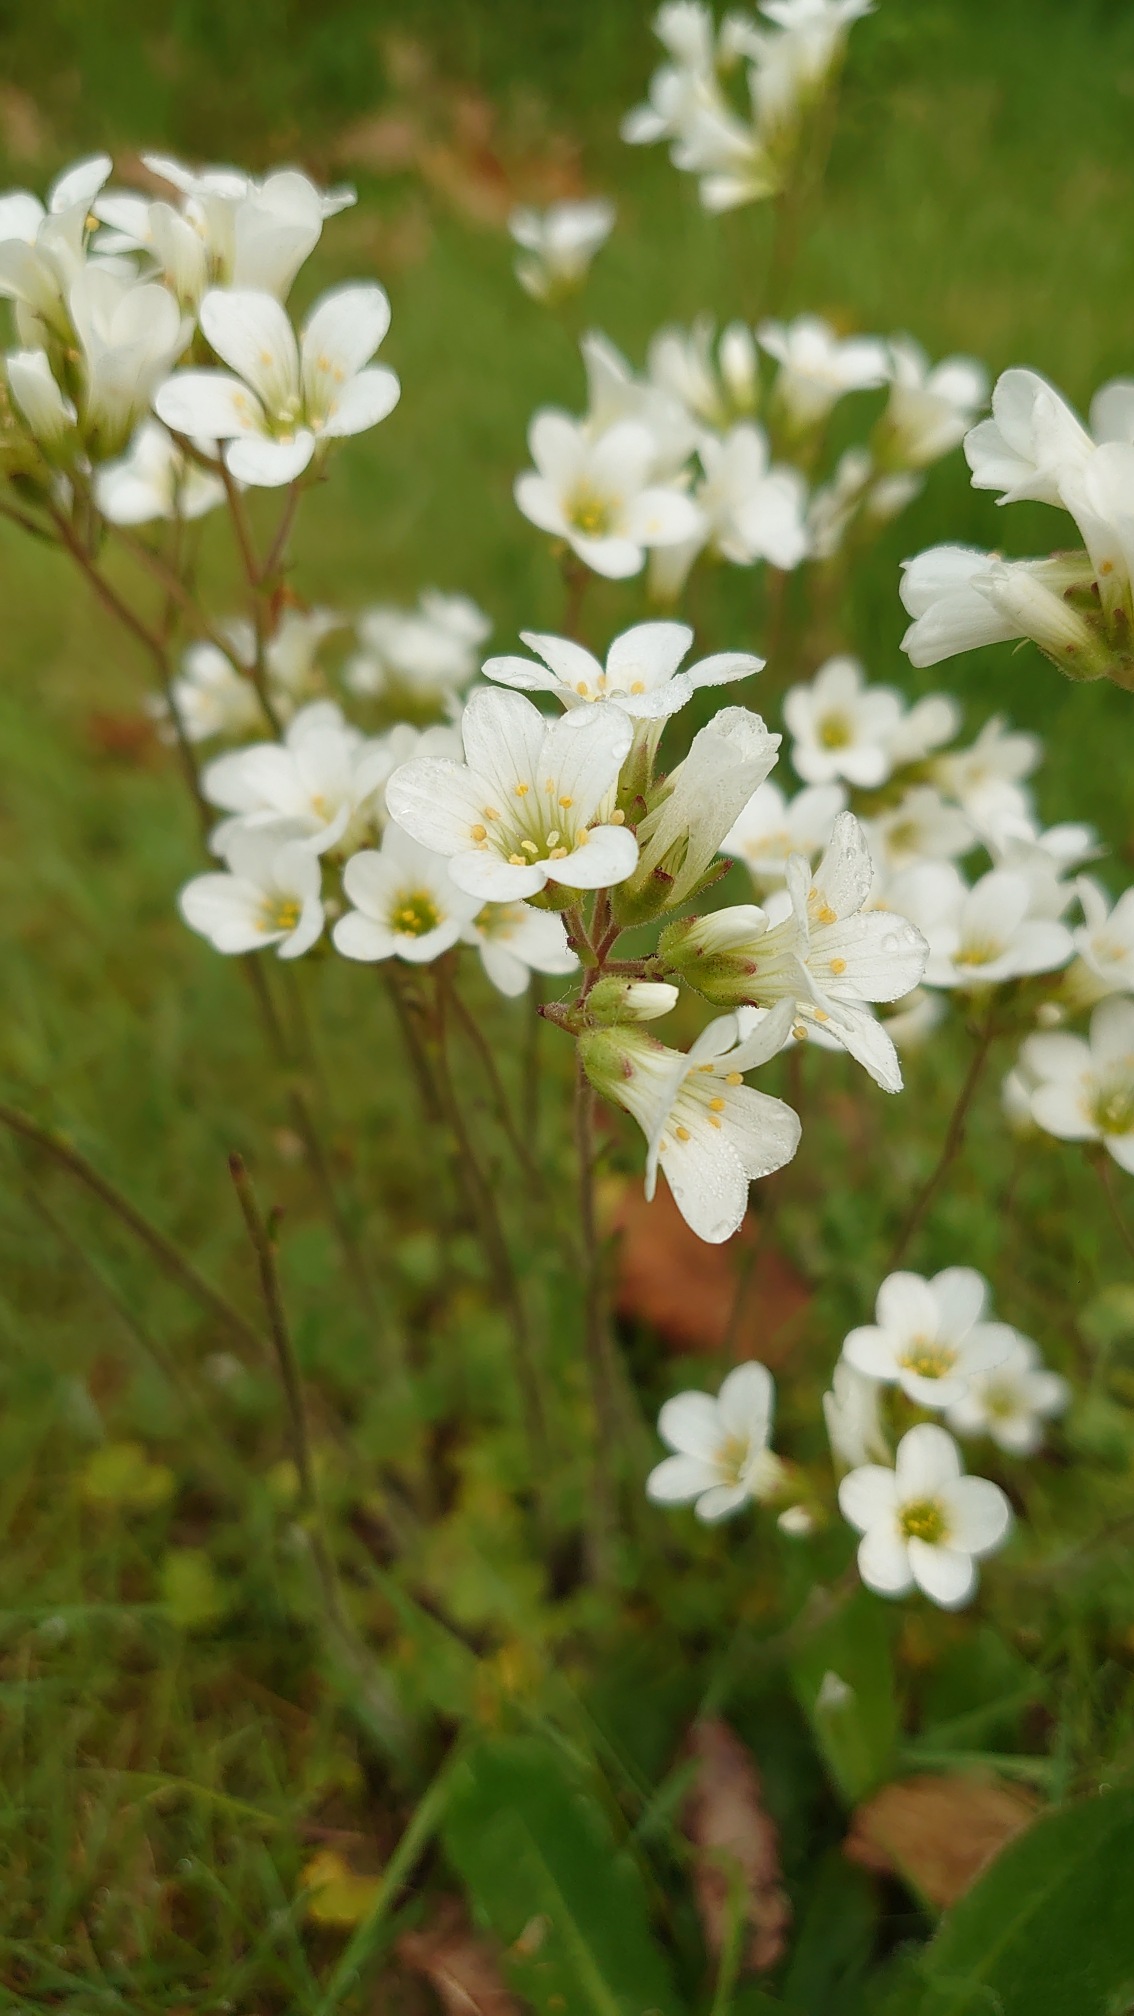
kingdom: Plantae
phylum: Tracheophyta
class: Magnoliopsida
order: Saxifragales
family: Saxifragaceae
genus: Saxifraga
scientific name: Saxifraga granulata
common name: Kornet stenbræk
